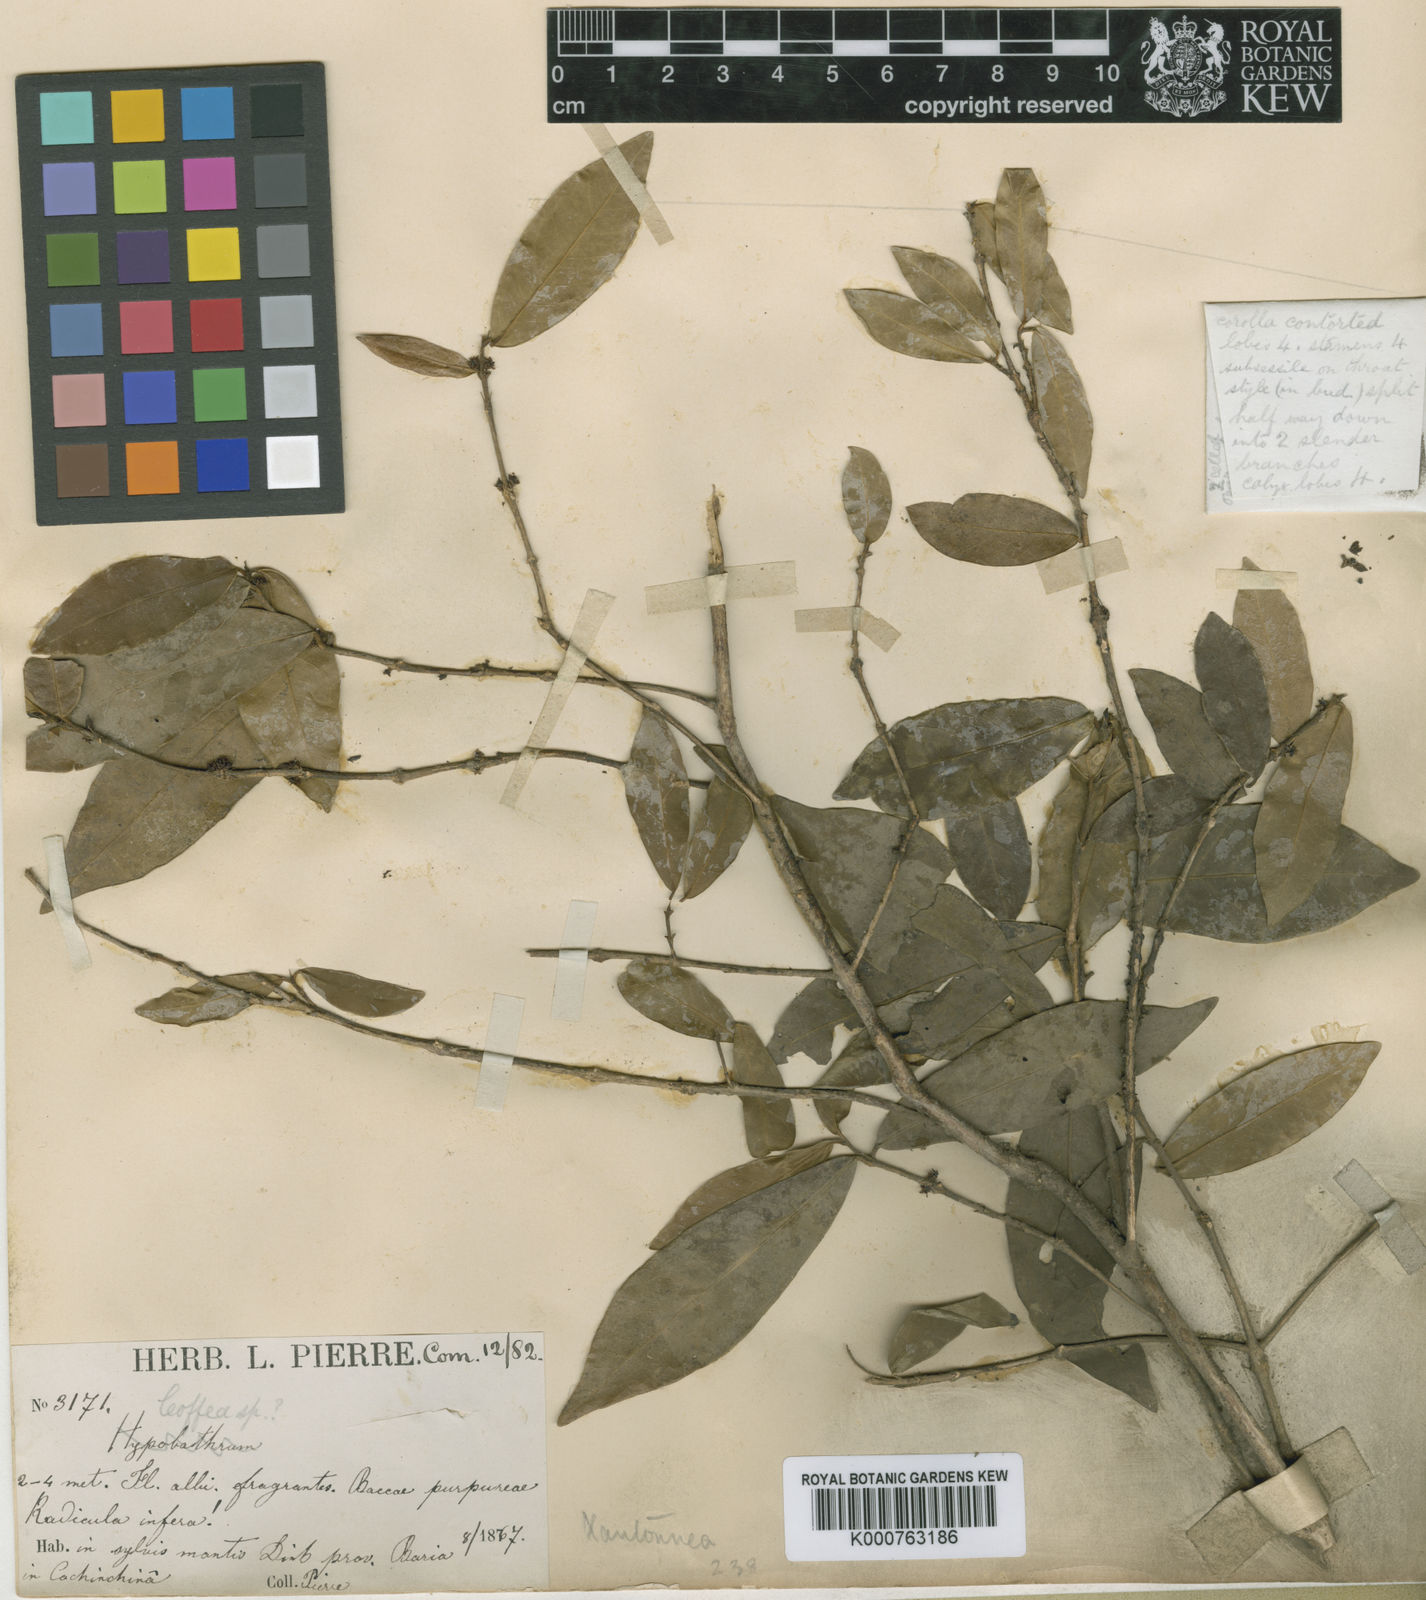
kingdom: Plantae
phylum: Tracheophyta
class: Magnoliopsida
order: Gentianales
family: Rubiaceae
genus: Discospermum
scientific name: Discospermum coffeoides
